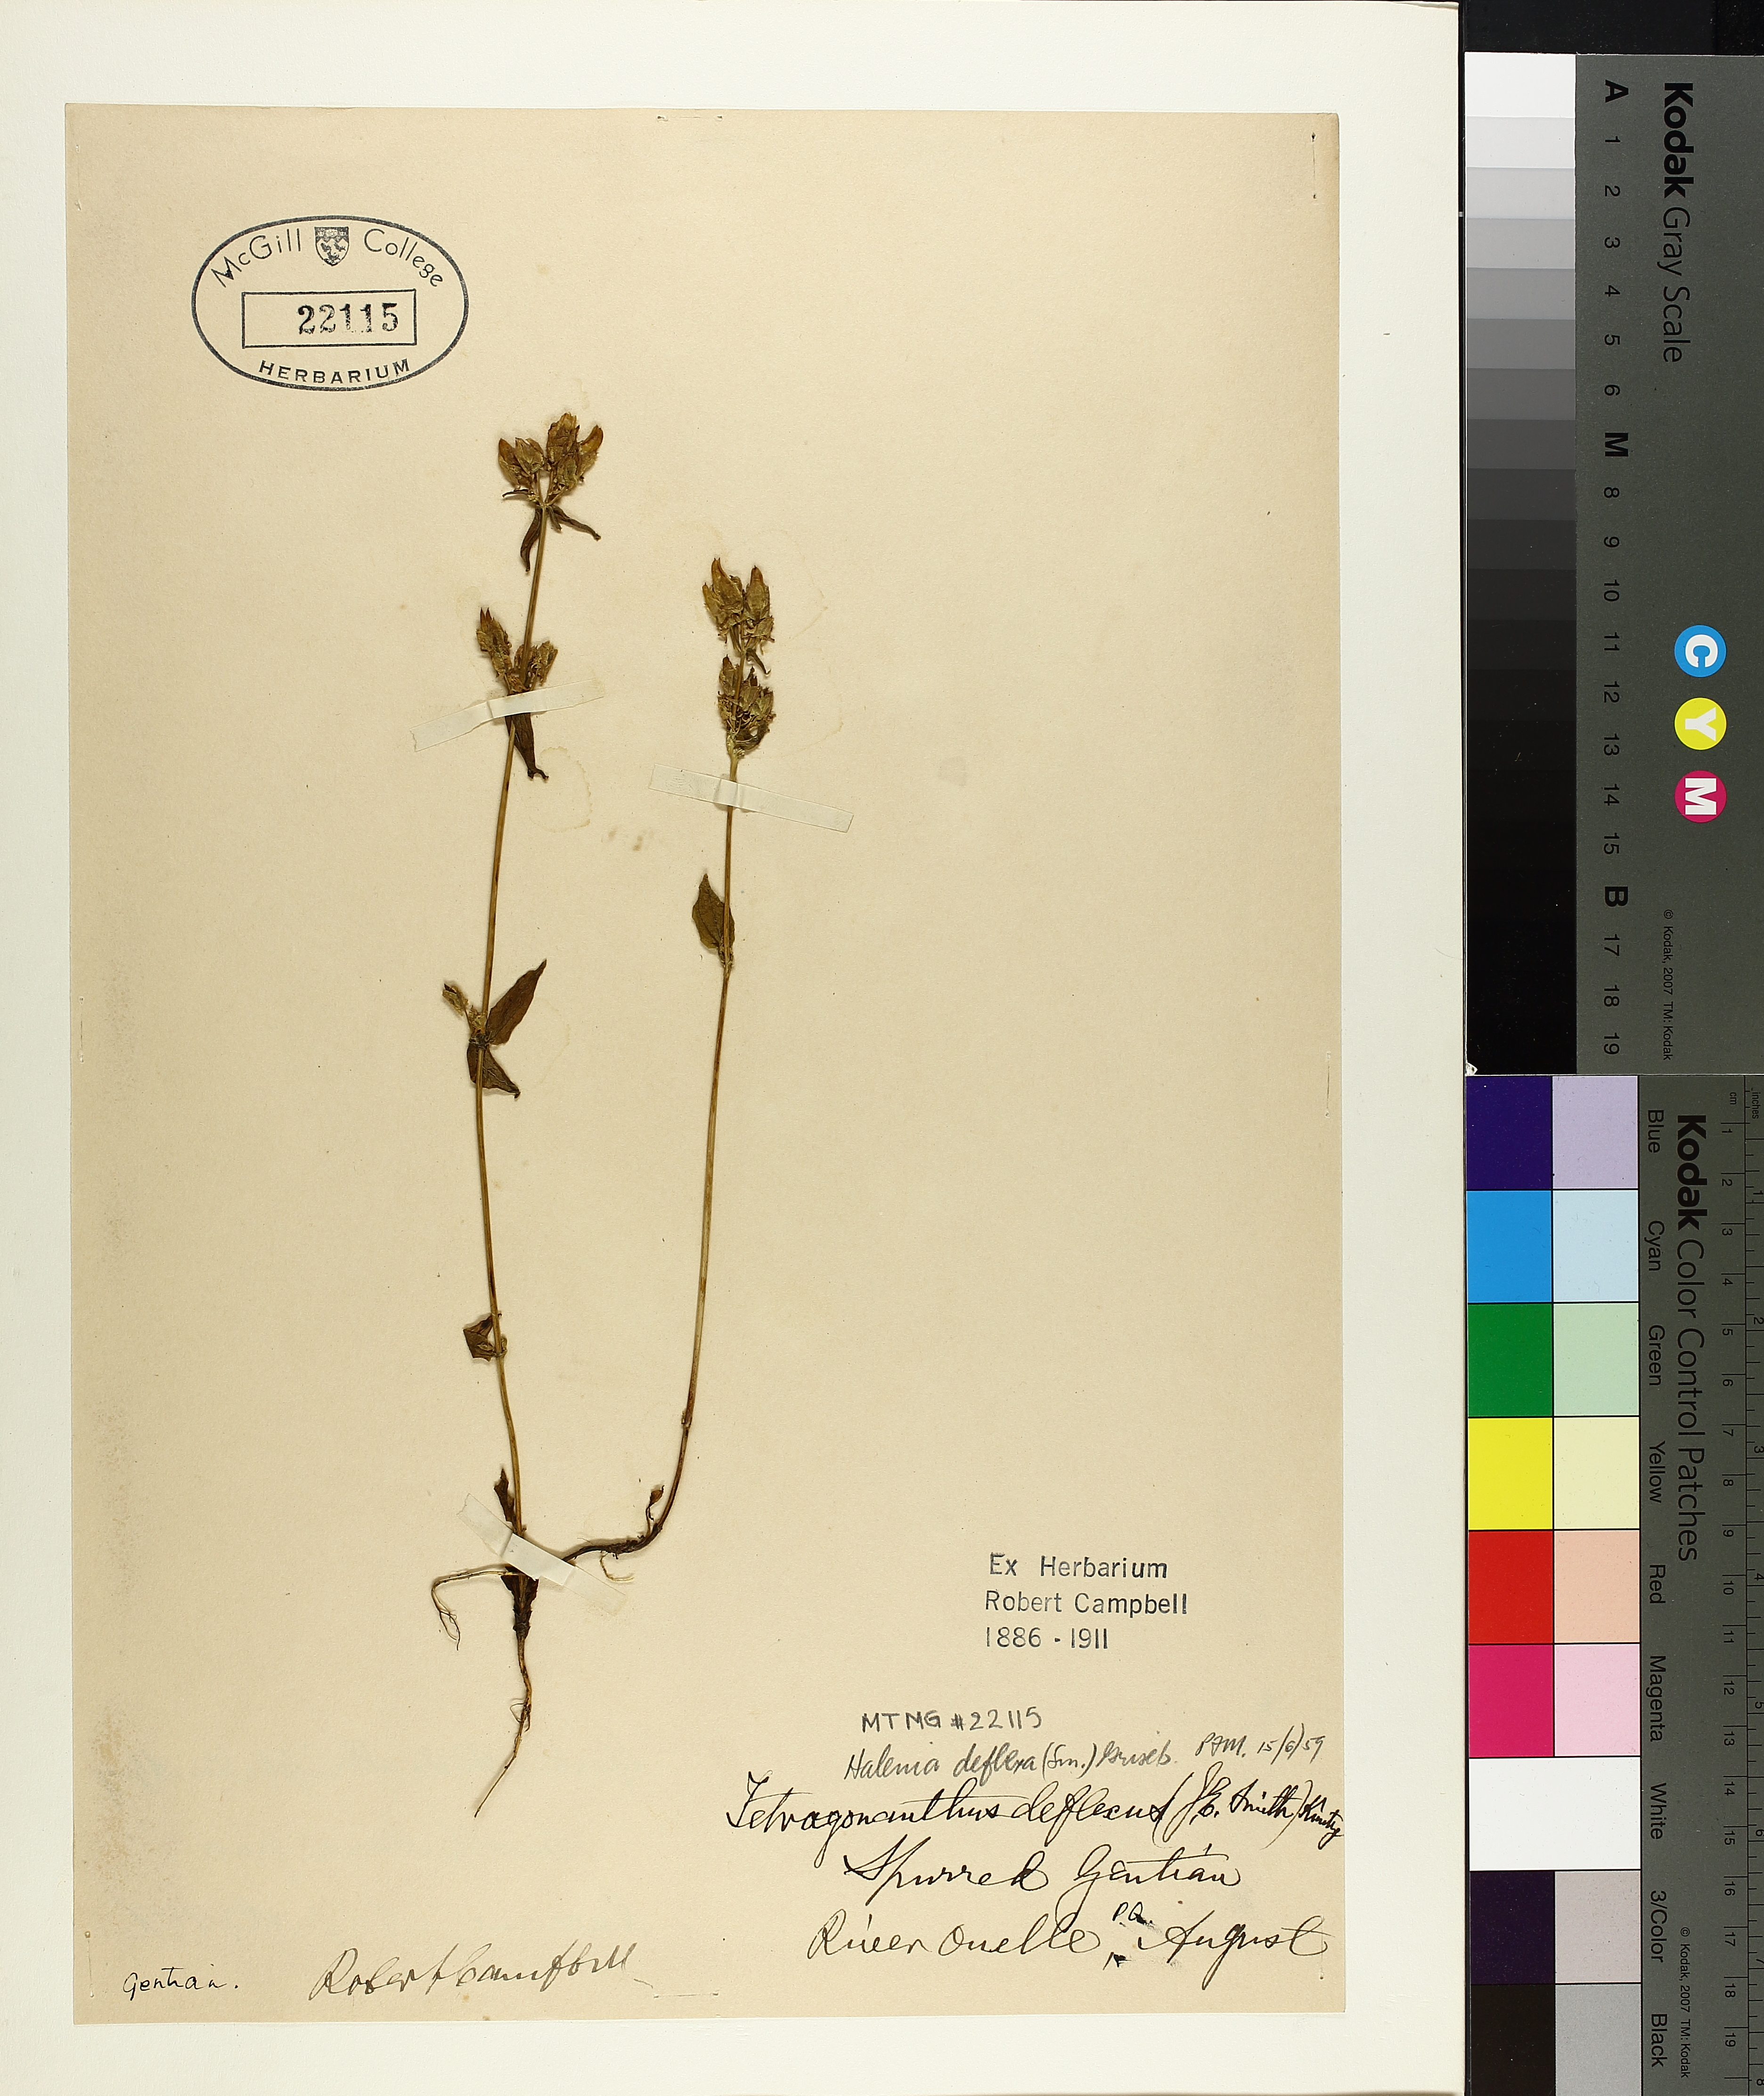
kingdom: Plantae
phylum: Tracheophyta
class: Magnoliopsida
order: Gentianales
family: Gentianaceae
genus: Halenia
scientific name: Halenia deflexa
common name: American spurred gentian
